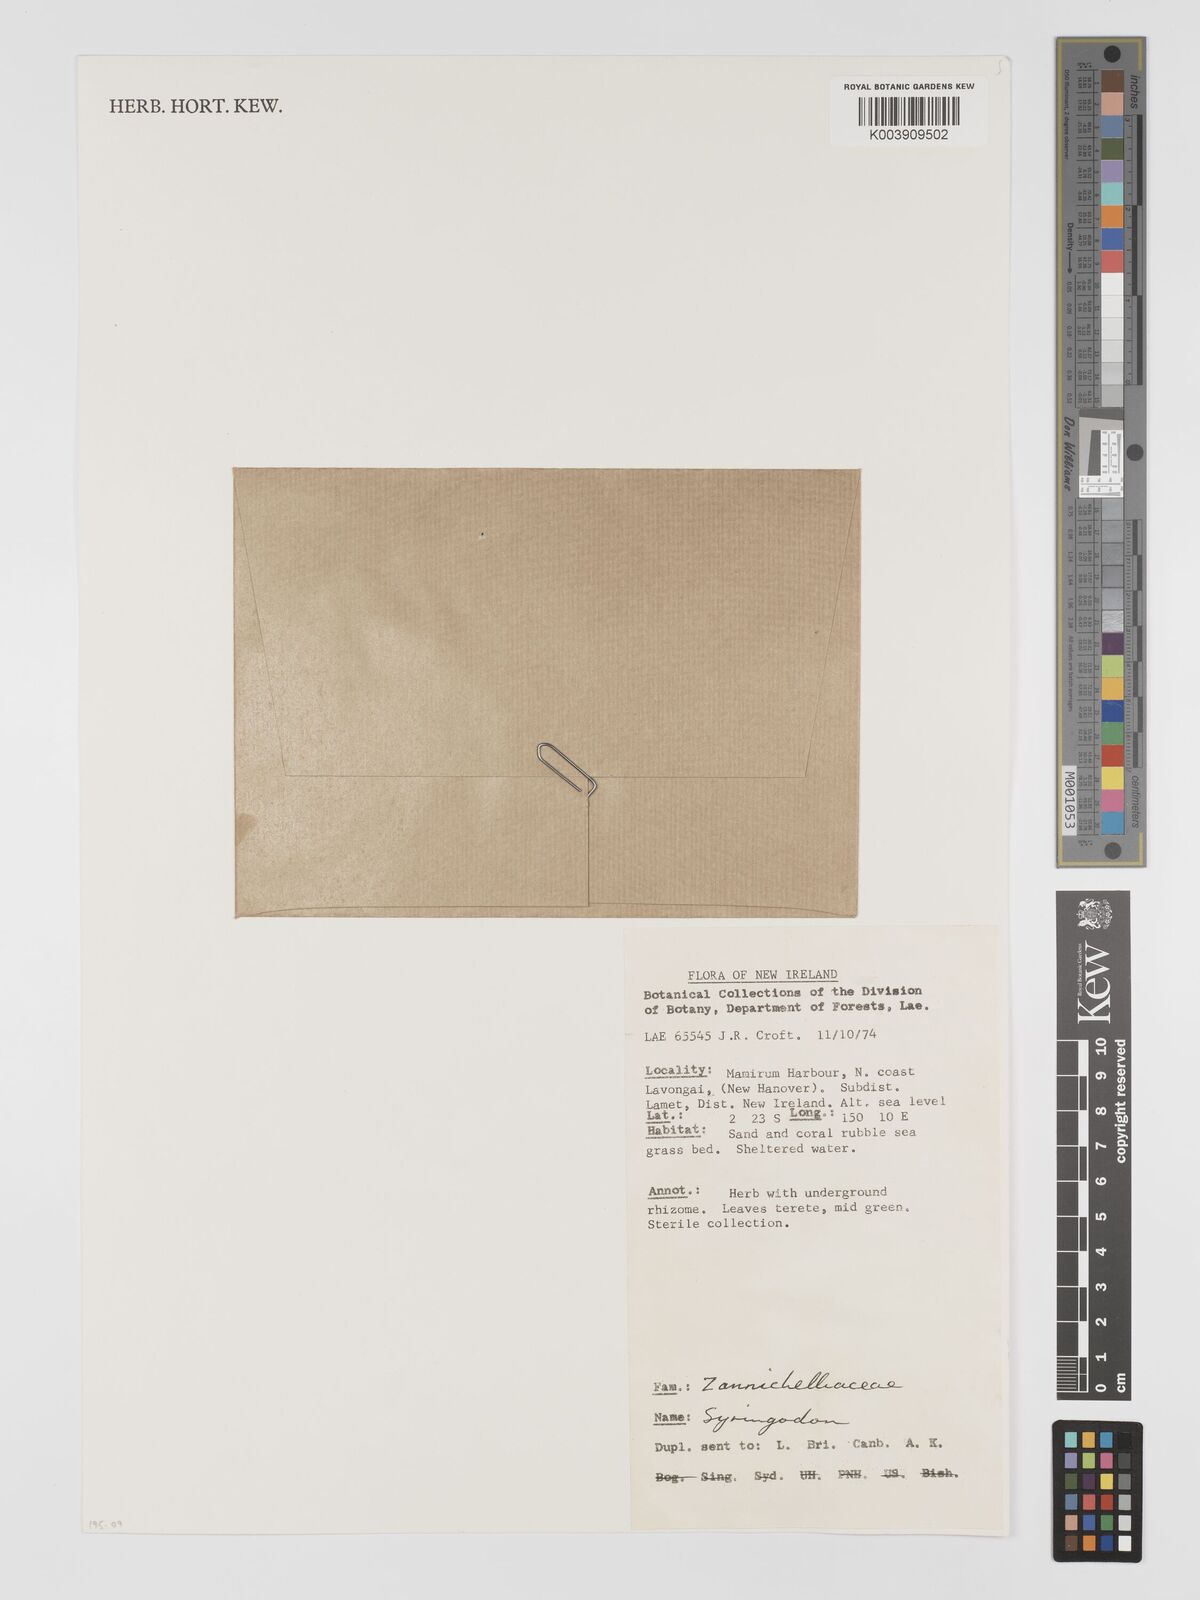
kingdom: Plantae
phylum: Tracheophyta
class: Liliopsida
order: Alismatales
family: Cymodoceaceae
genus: Syringodium
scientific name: Syringodium
